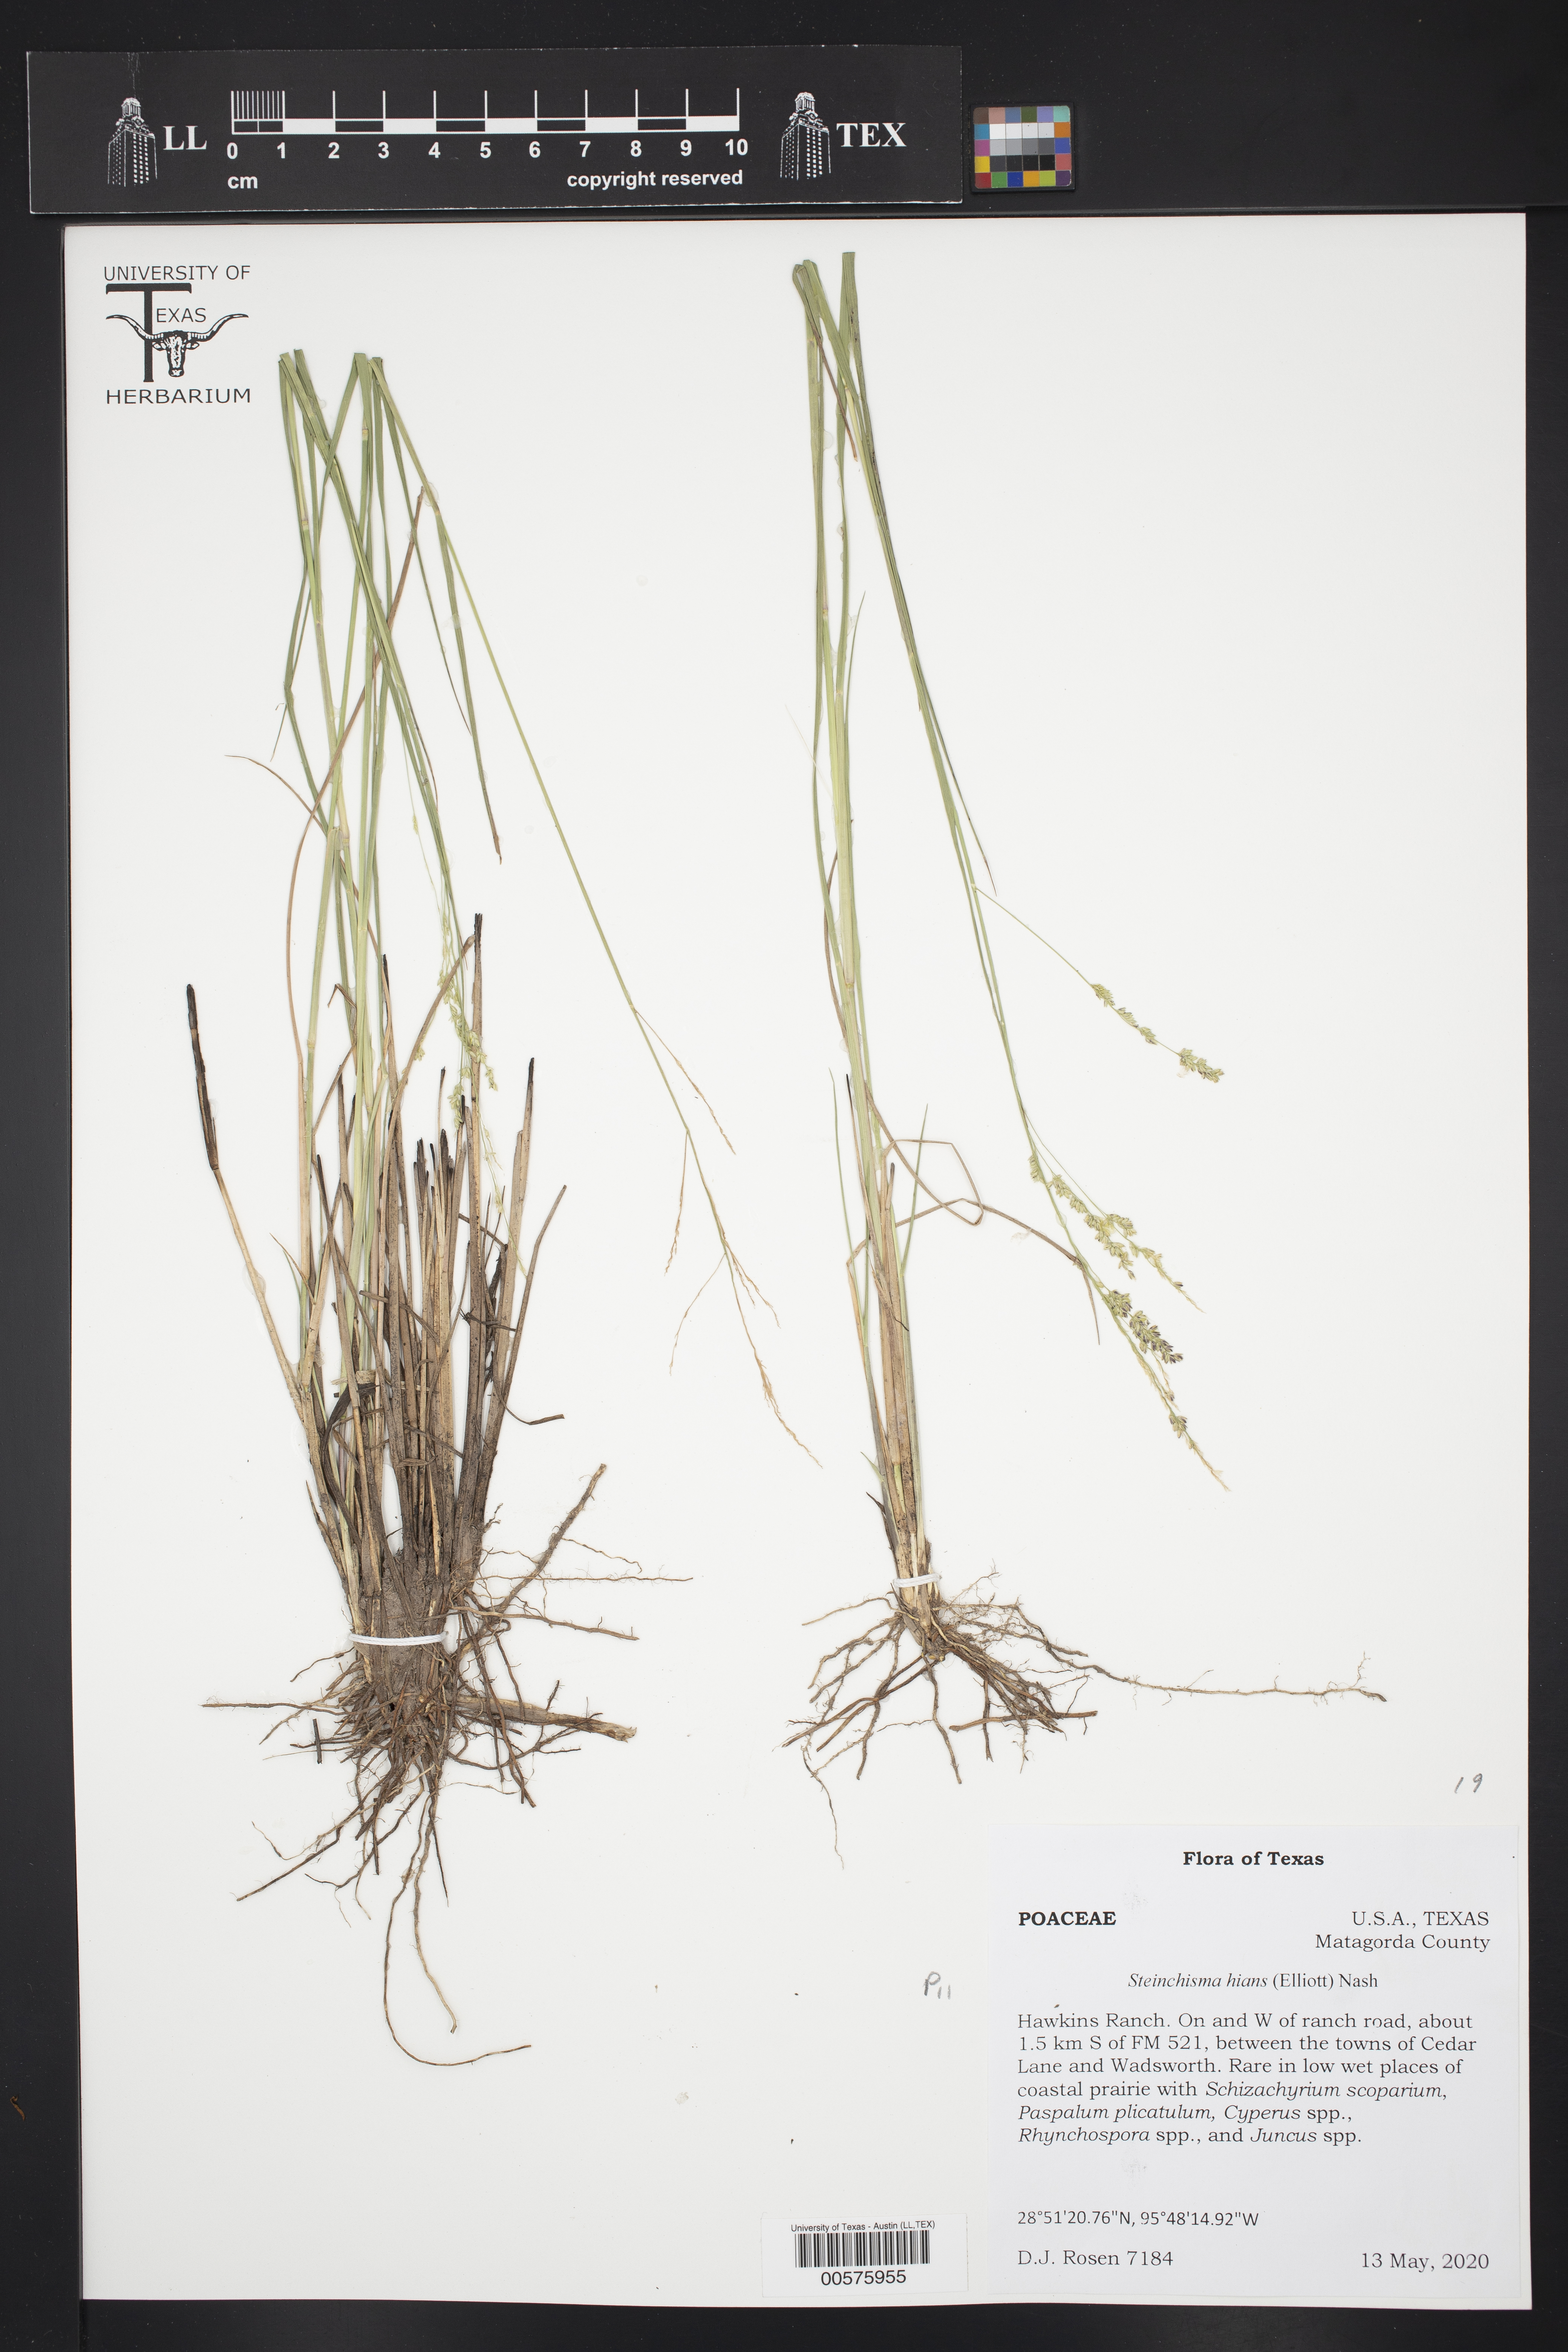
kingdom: Plantae
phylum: Tracheophyta
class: Liliopsida
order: Poales
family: Poaceae
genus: Steinchisma
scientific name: Steinchisma hians
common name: Gaping panic grass
